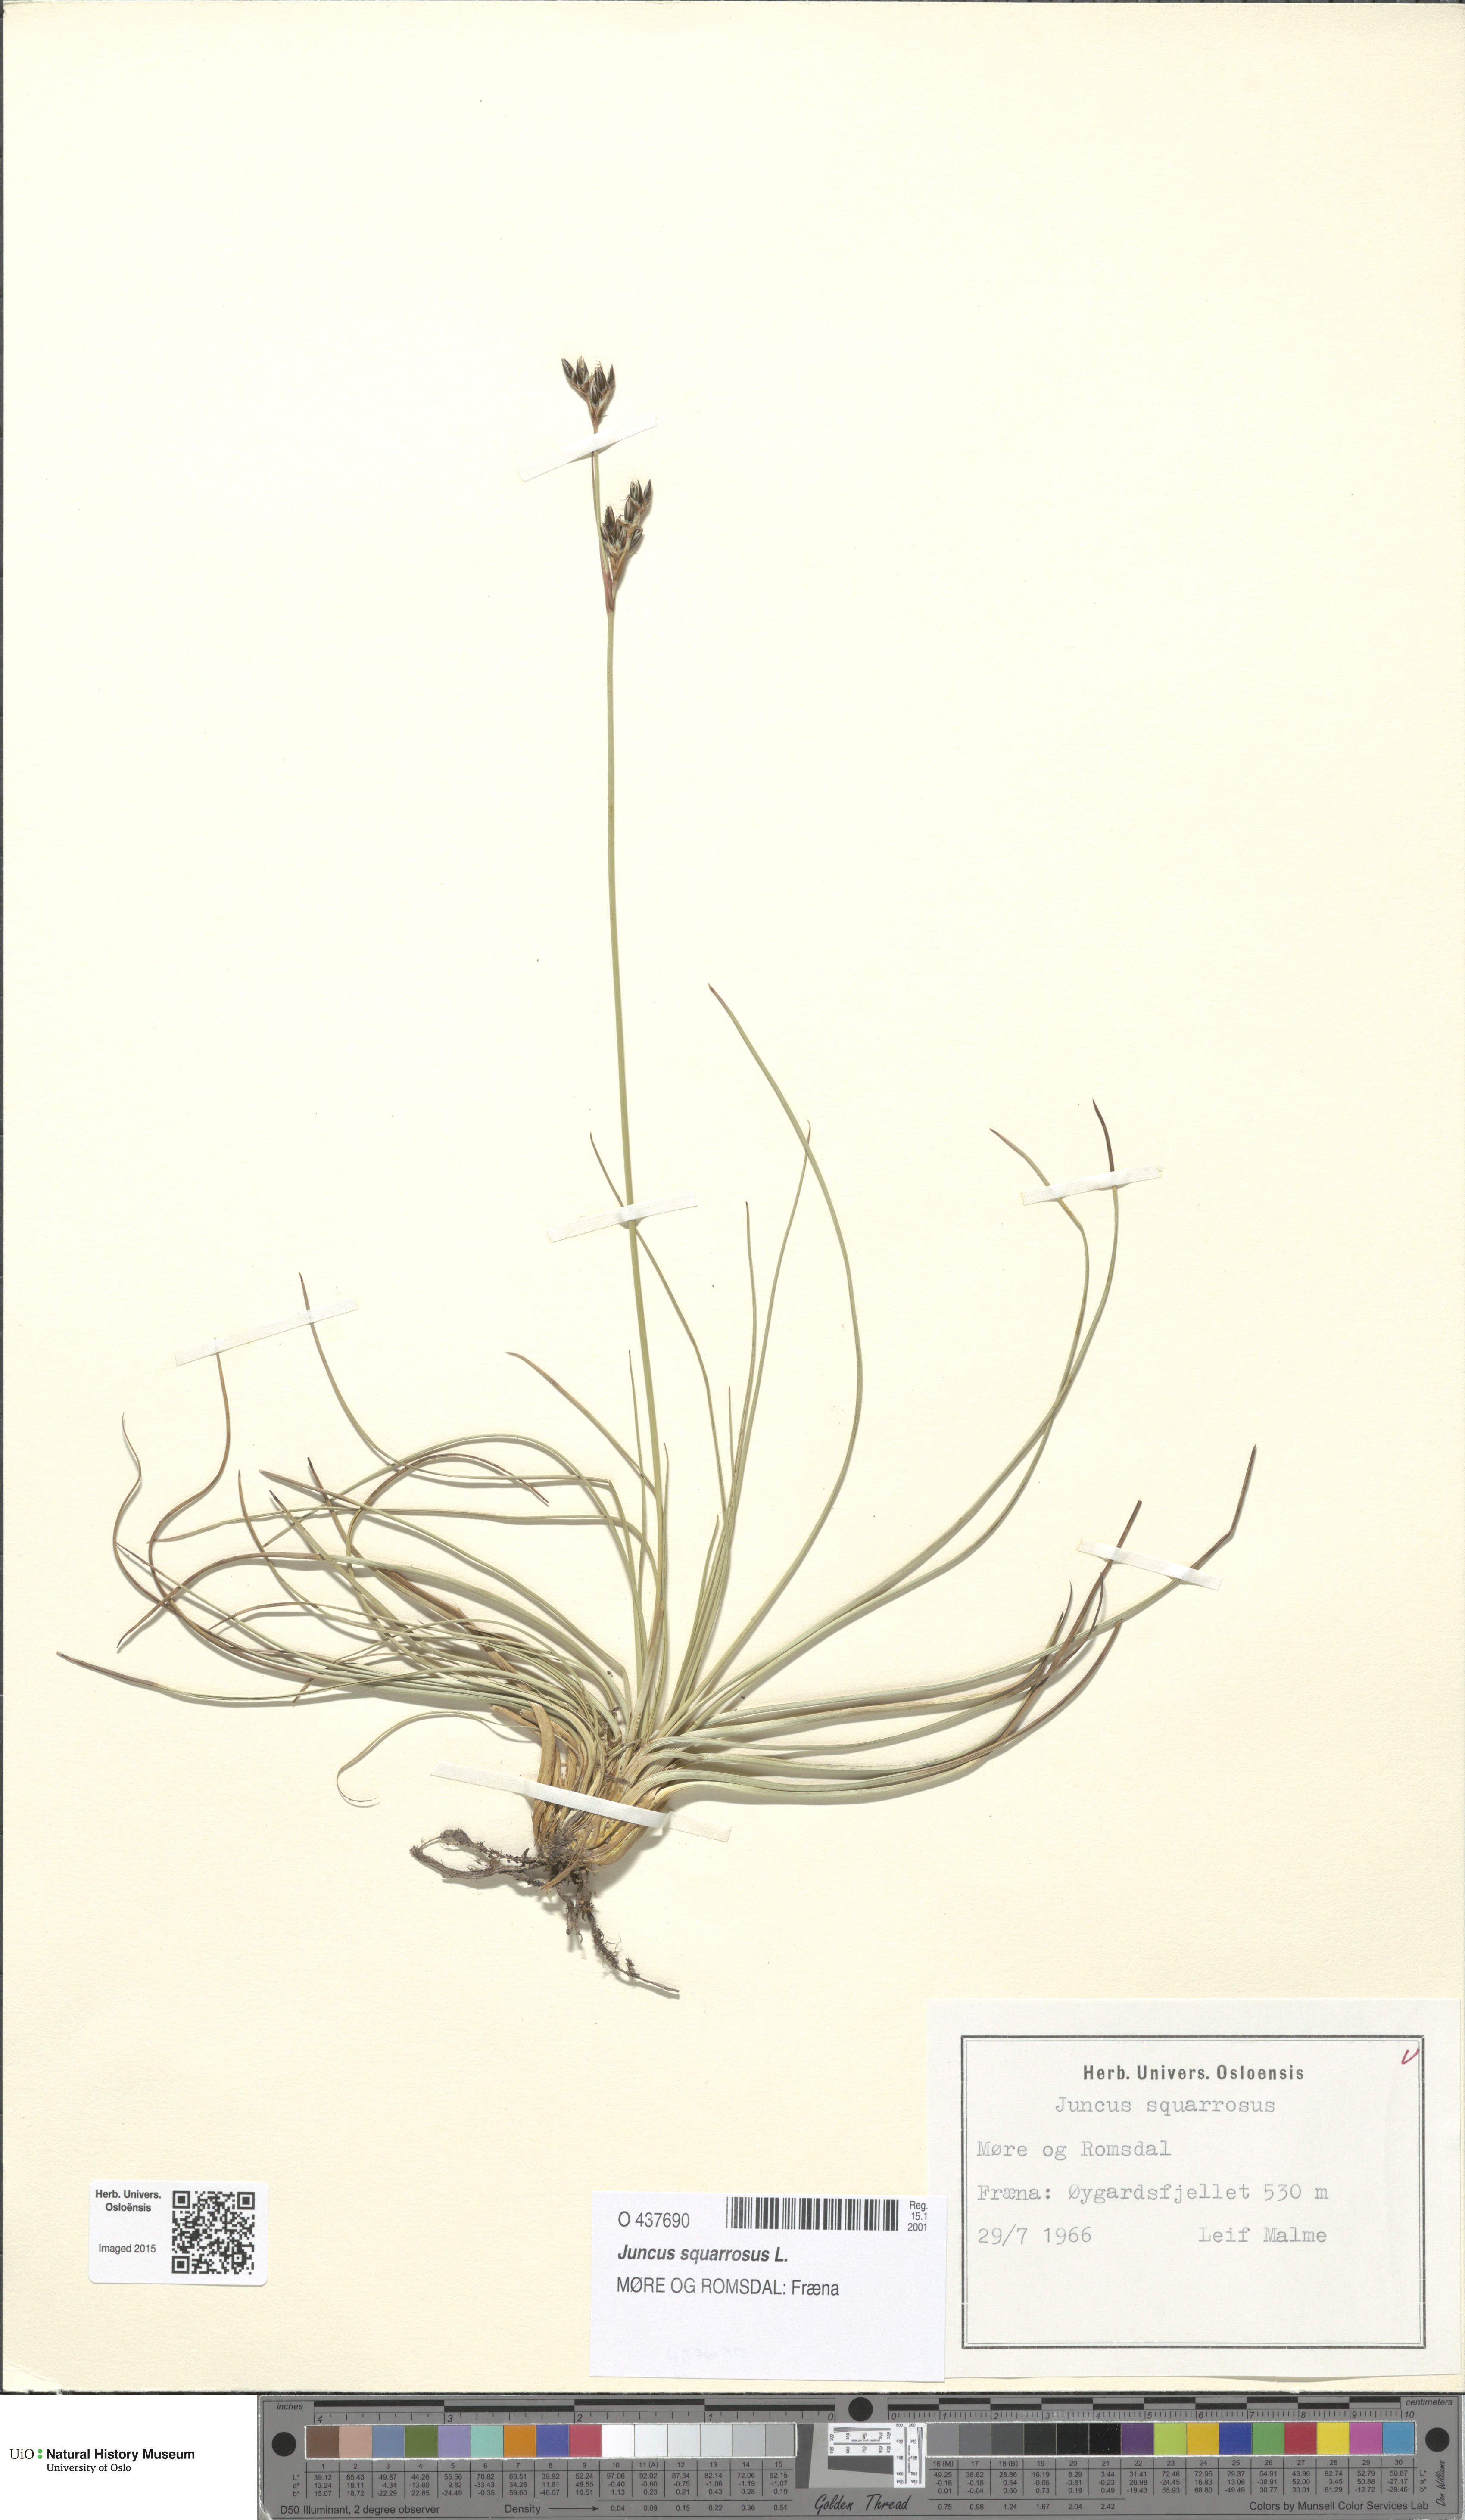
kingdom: Plantae
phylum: Tracheophyta
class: Liliopsida
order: Poales
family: Juncaceae
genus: Juncus
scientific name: Juncus squarrosus
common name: Heath rush
